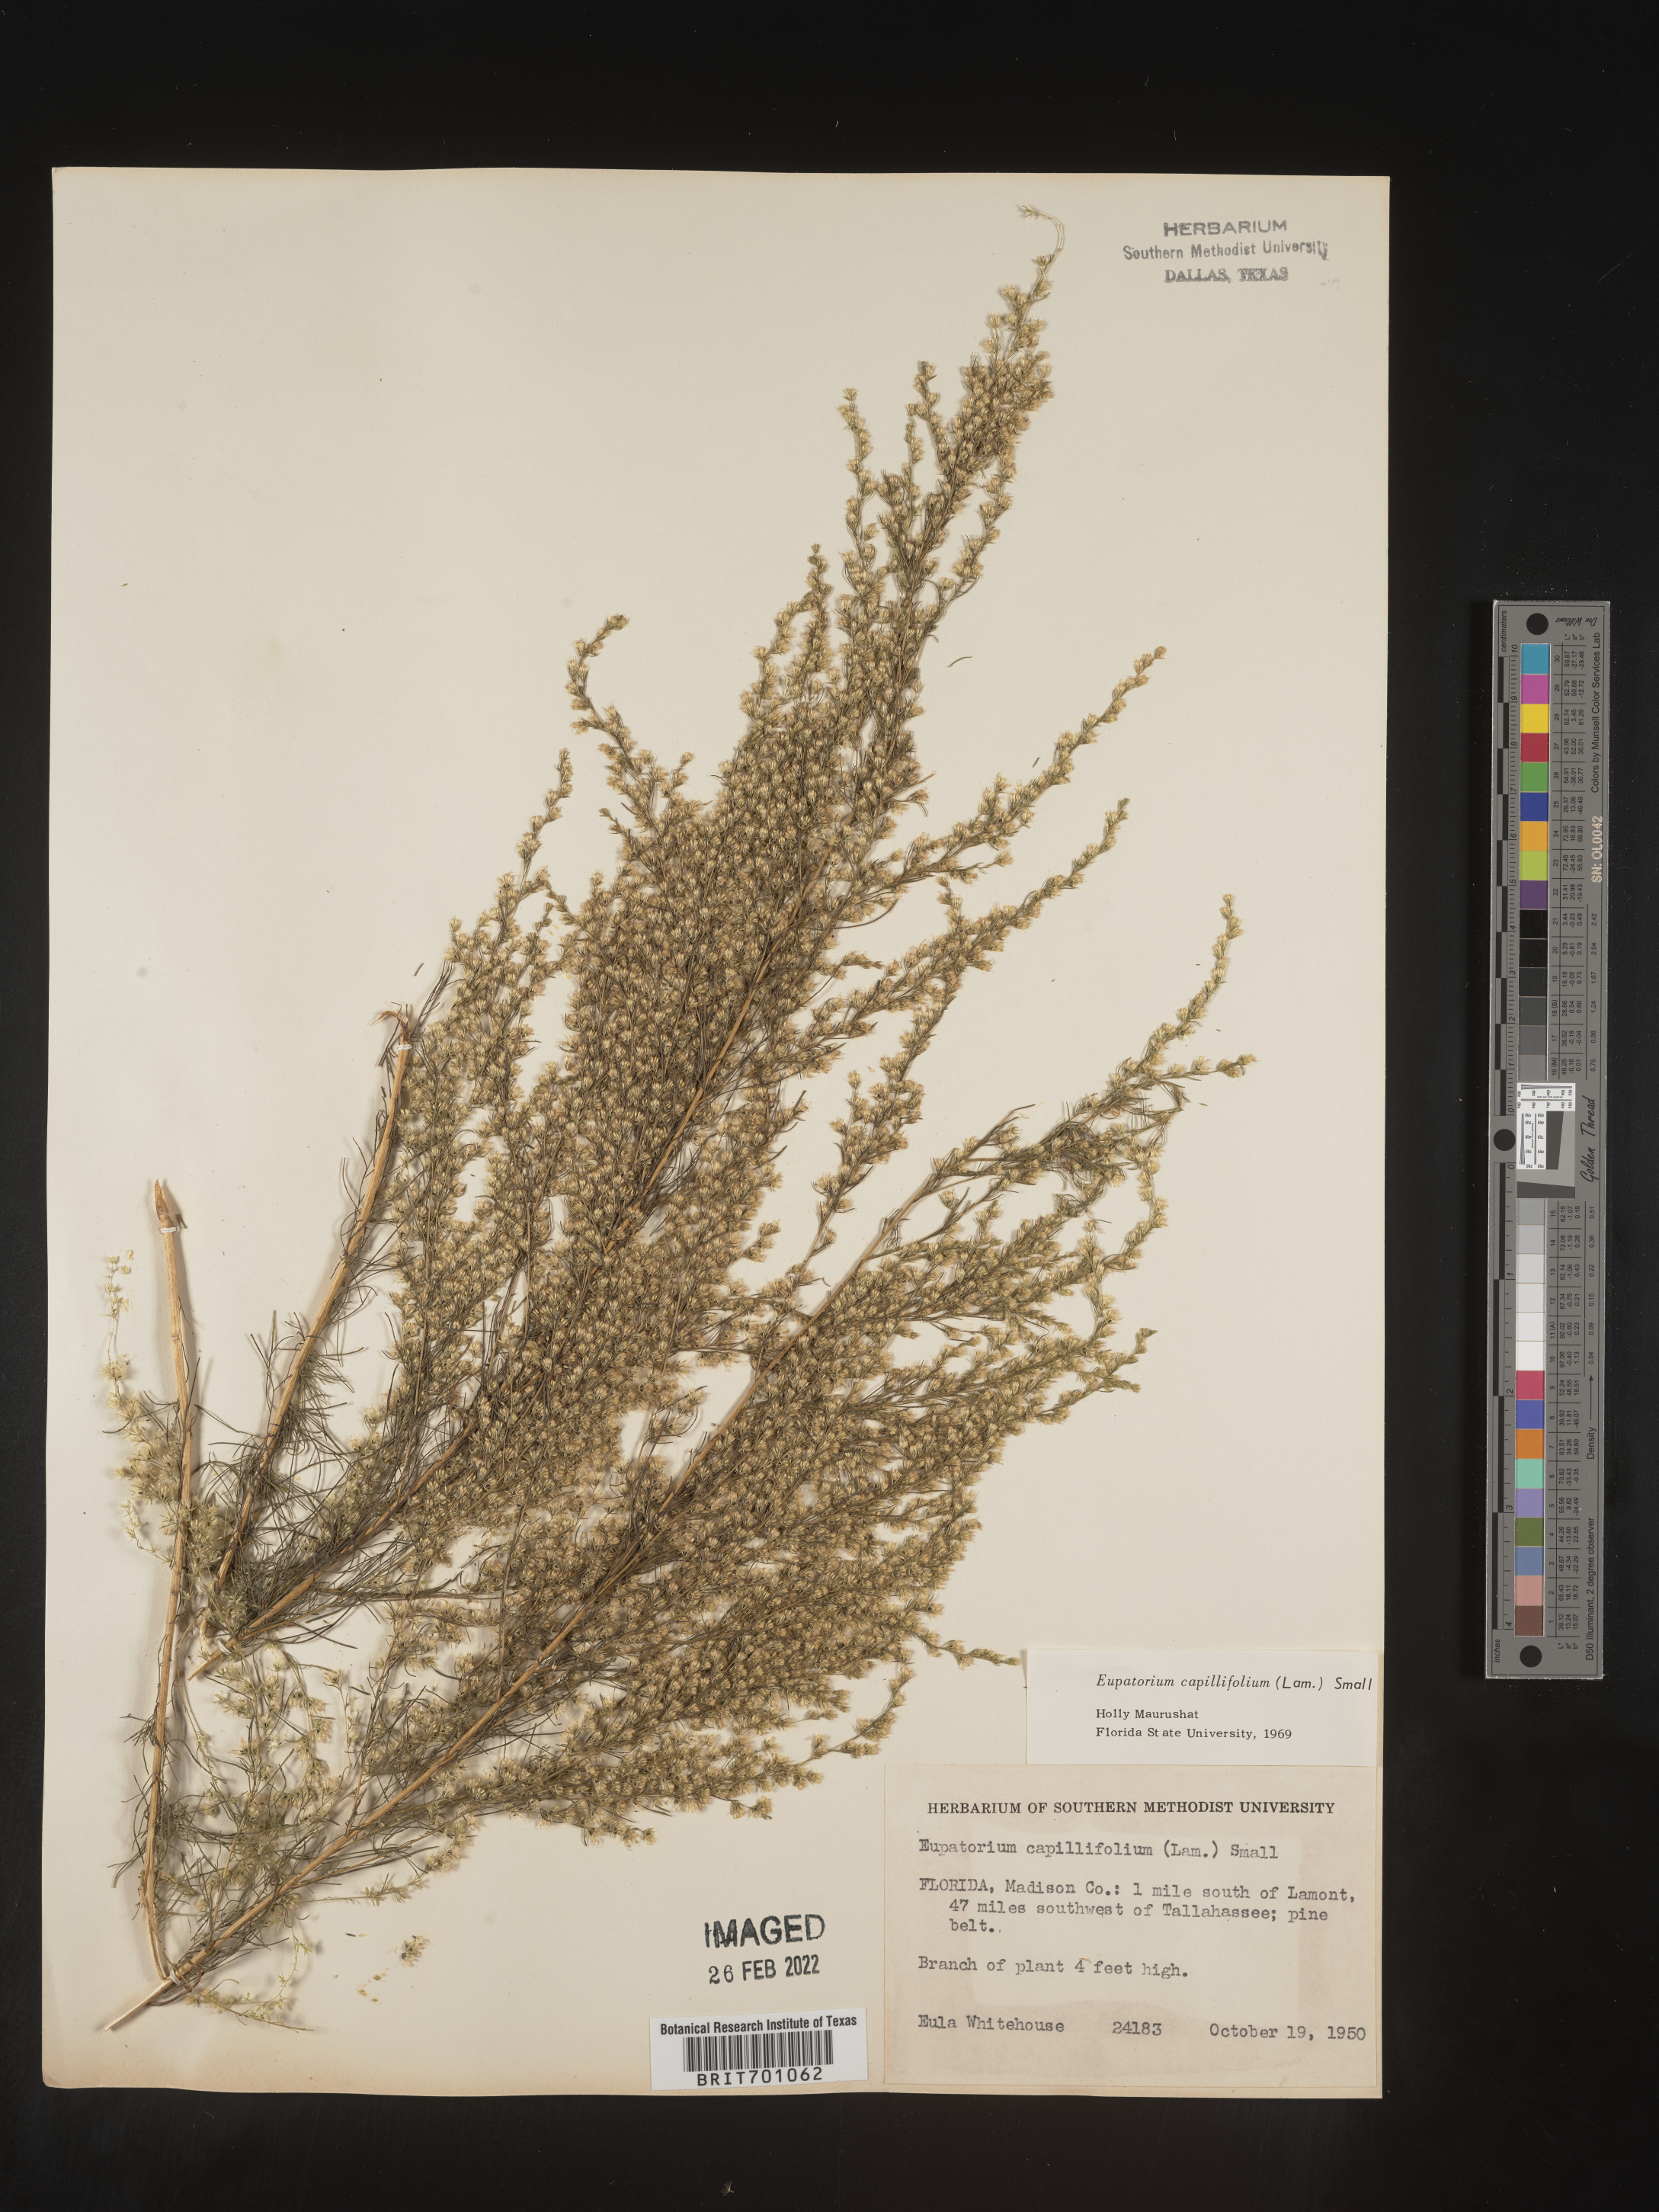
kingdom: Plantae
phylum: Tracheophyta
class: Magnoliopsida
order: Asterales
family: Asteraceae
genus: Eupatorium
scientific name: Eupatorium capillifolium
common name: Dog-fennel
